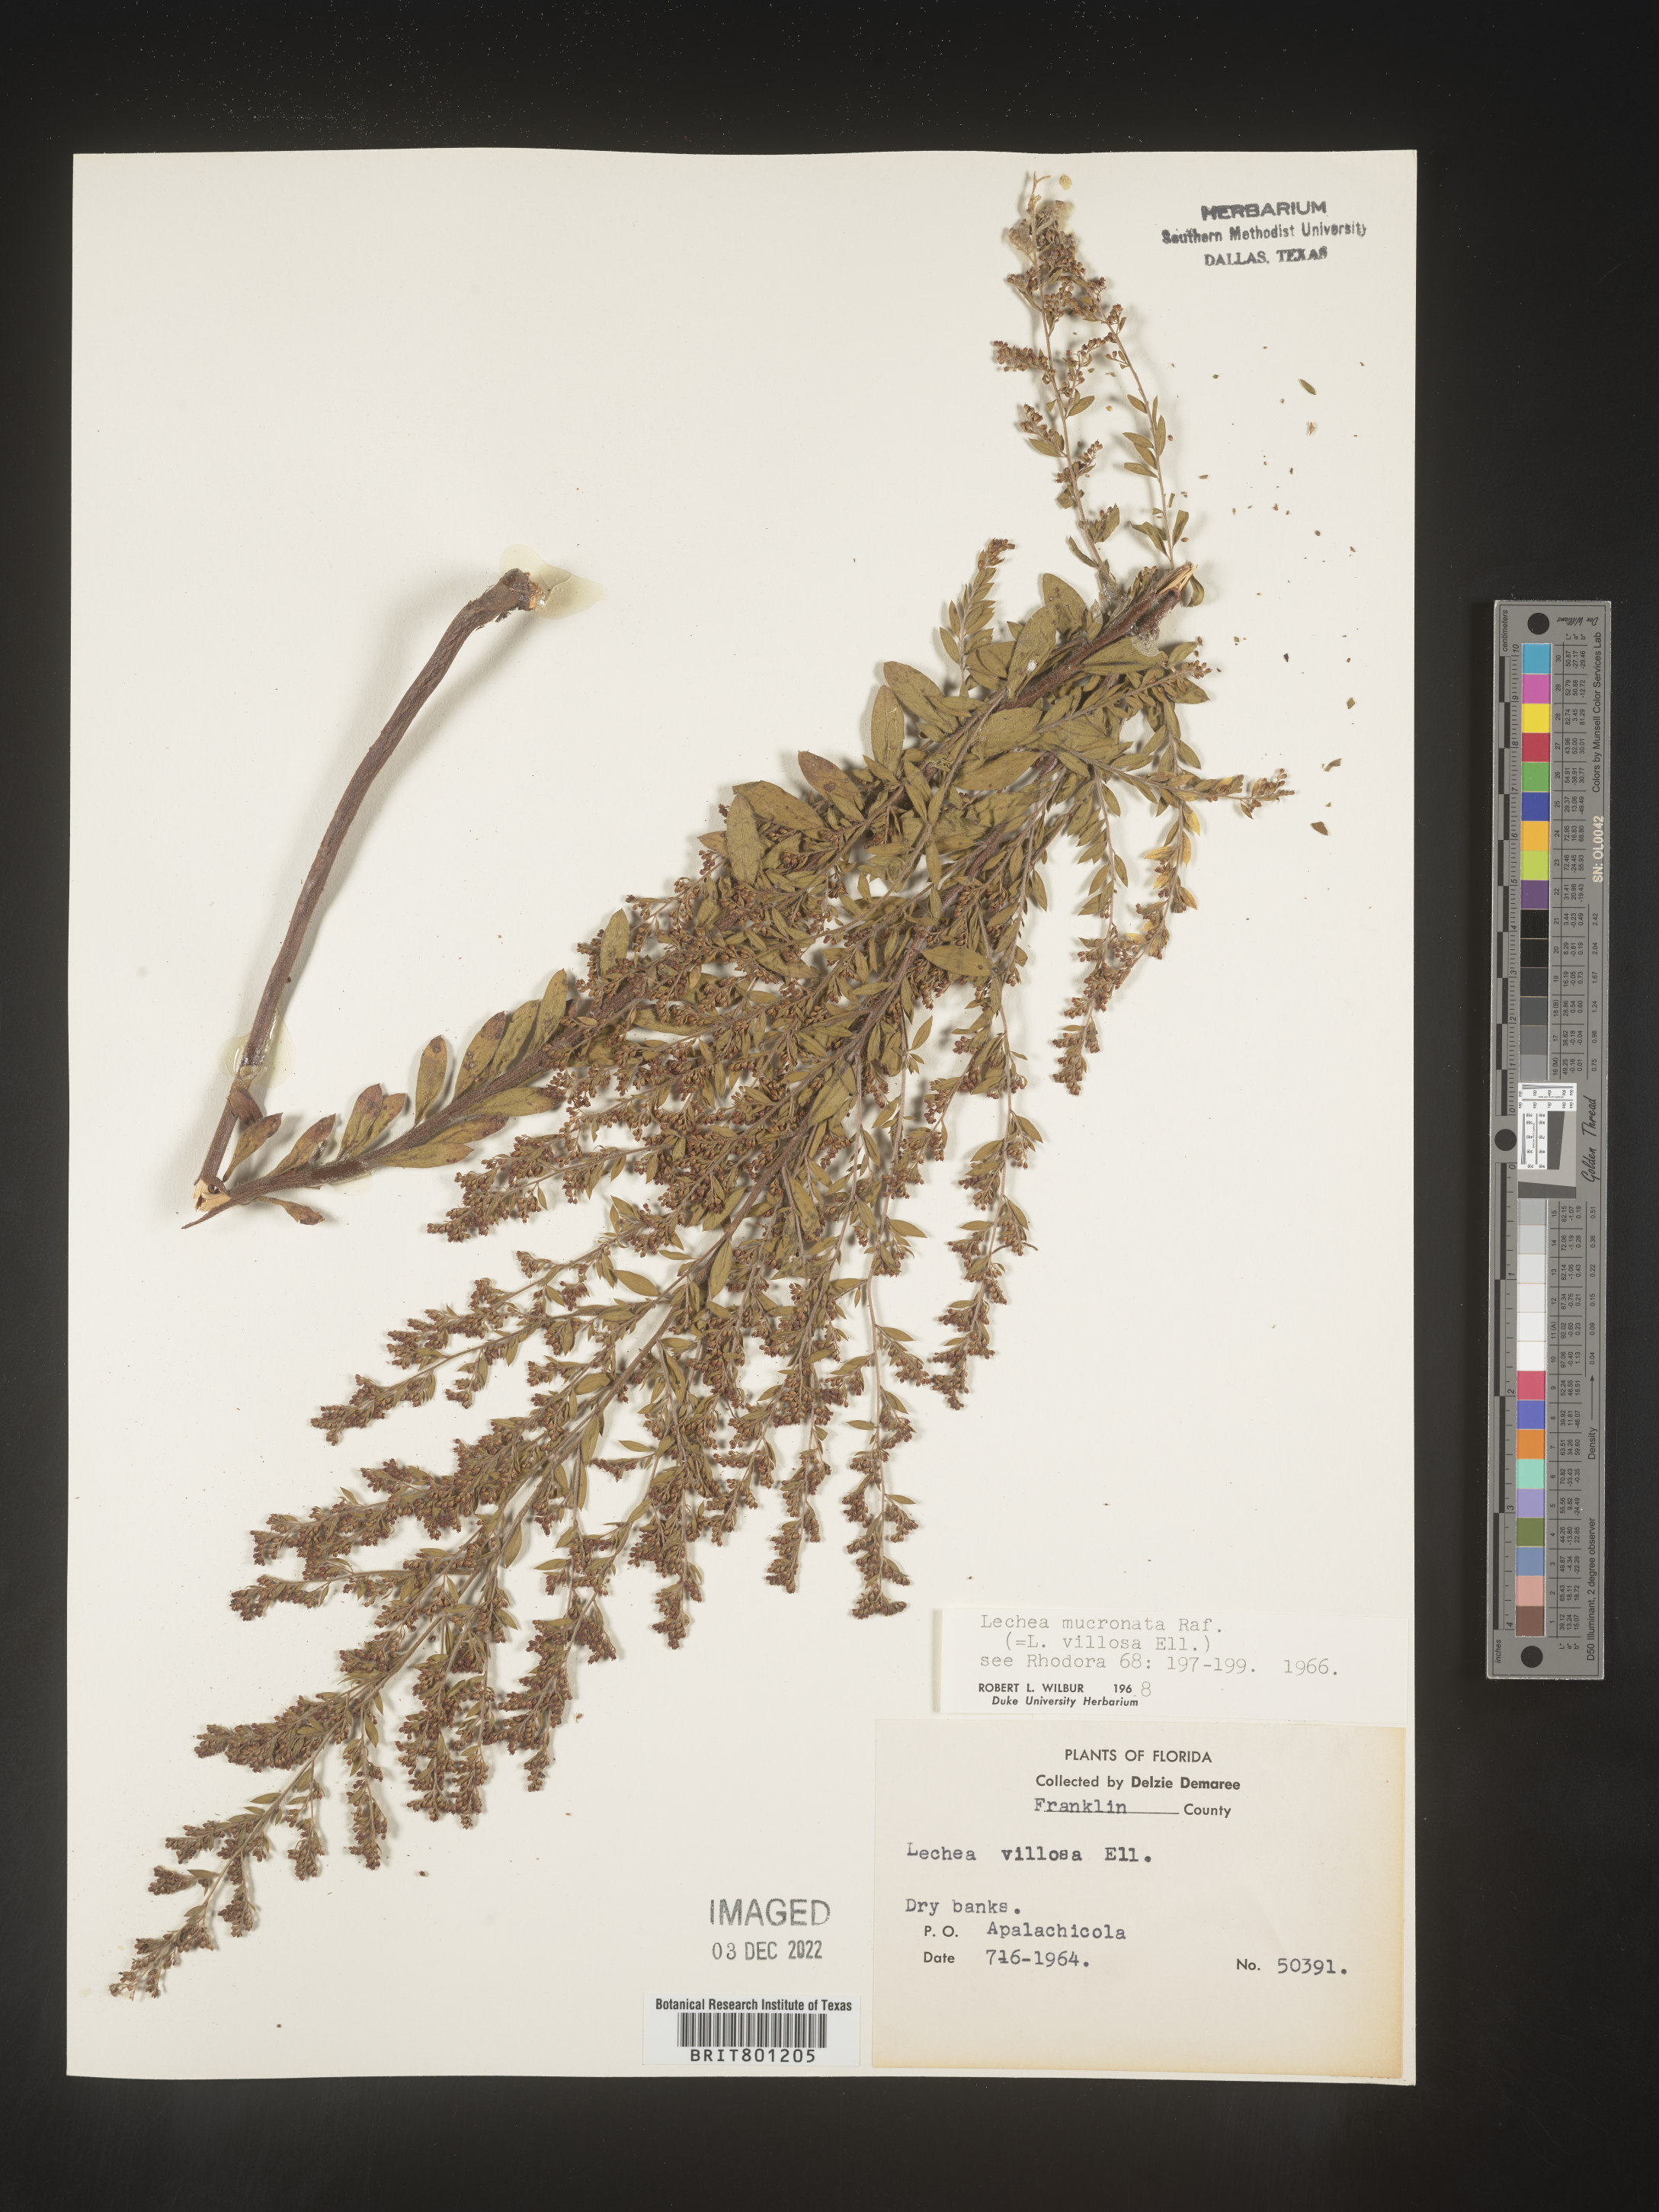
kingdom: Plantae
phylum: Tracheophyta
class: Magnoliopsida
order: Malvales
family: Cistaceae
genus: Lechea
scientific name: Lechea mucronata
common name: Hairy pinweed
